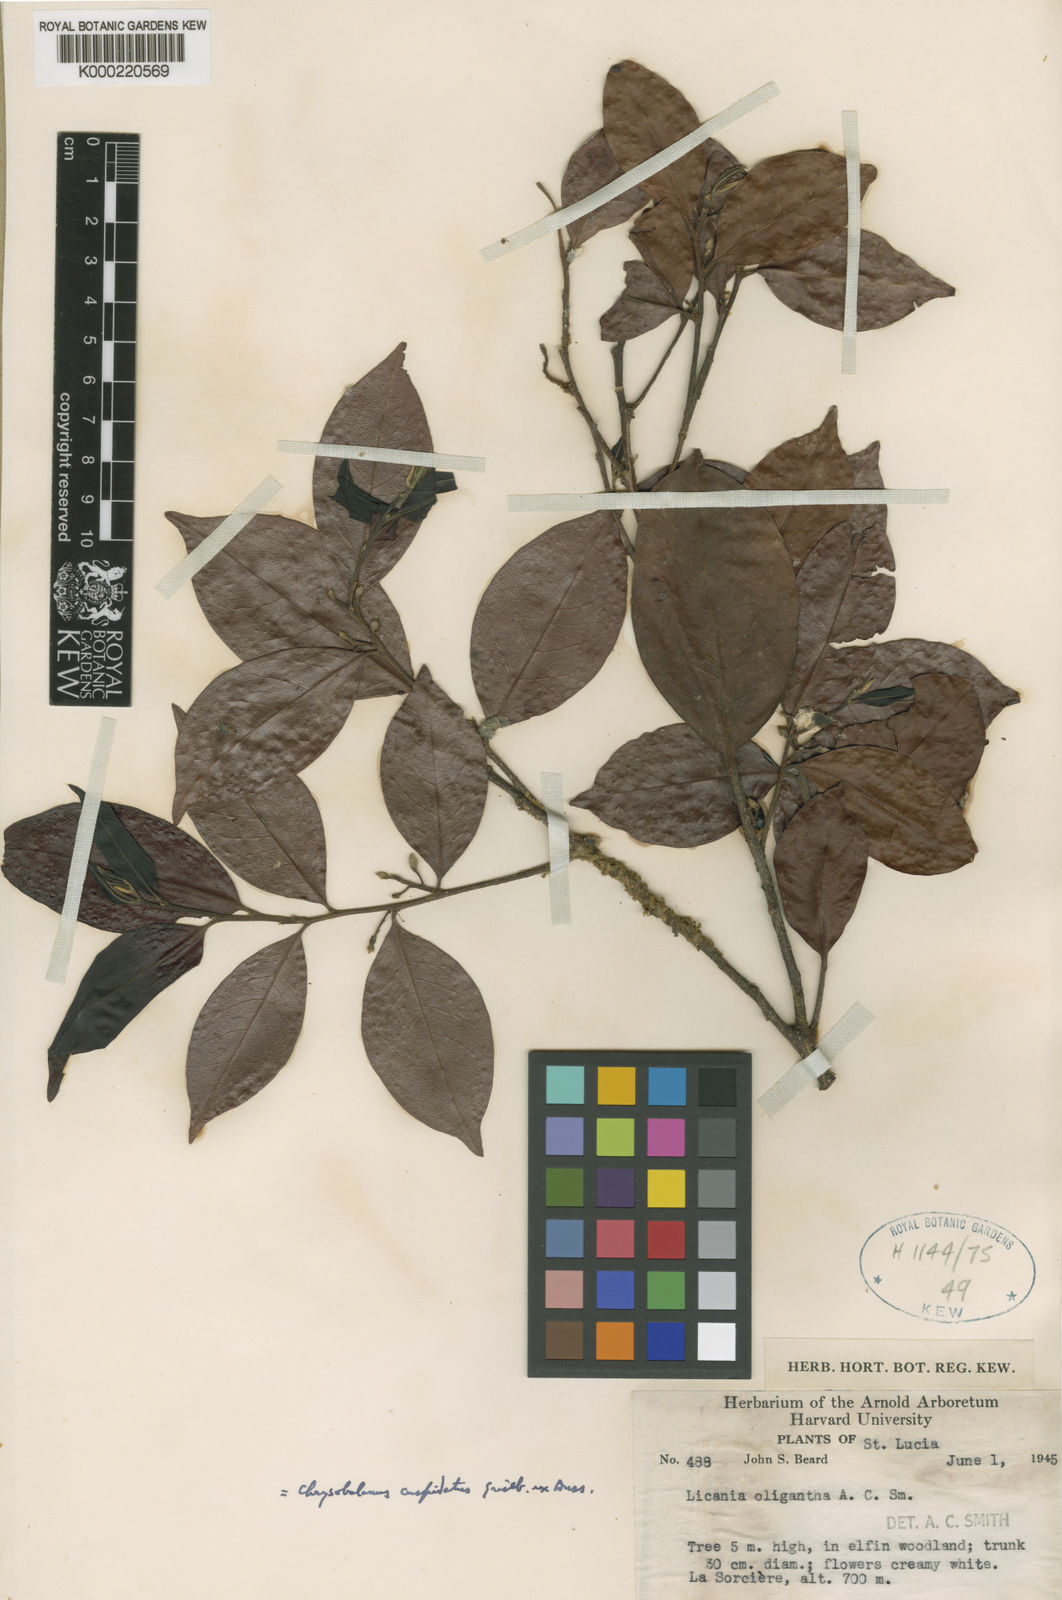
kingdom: Plantae
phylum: Tracheophyta
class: Magnoliopsida
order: Malpighiales
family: Chrysobalanaceae
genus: Chrysobalanus
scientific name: Chrysobalanus cuspidatus
